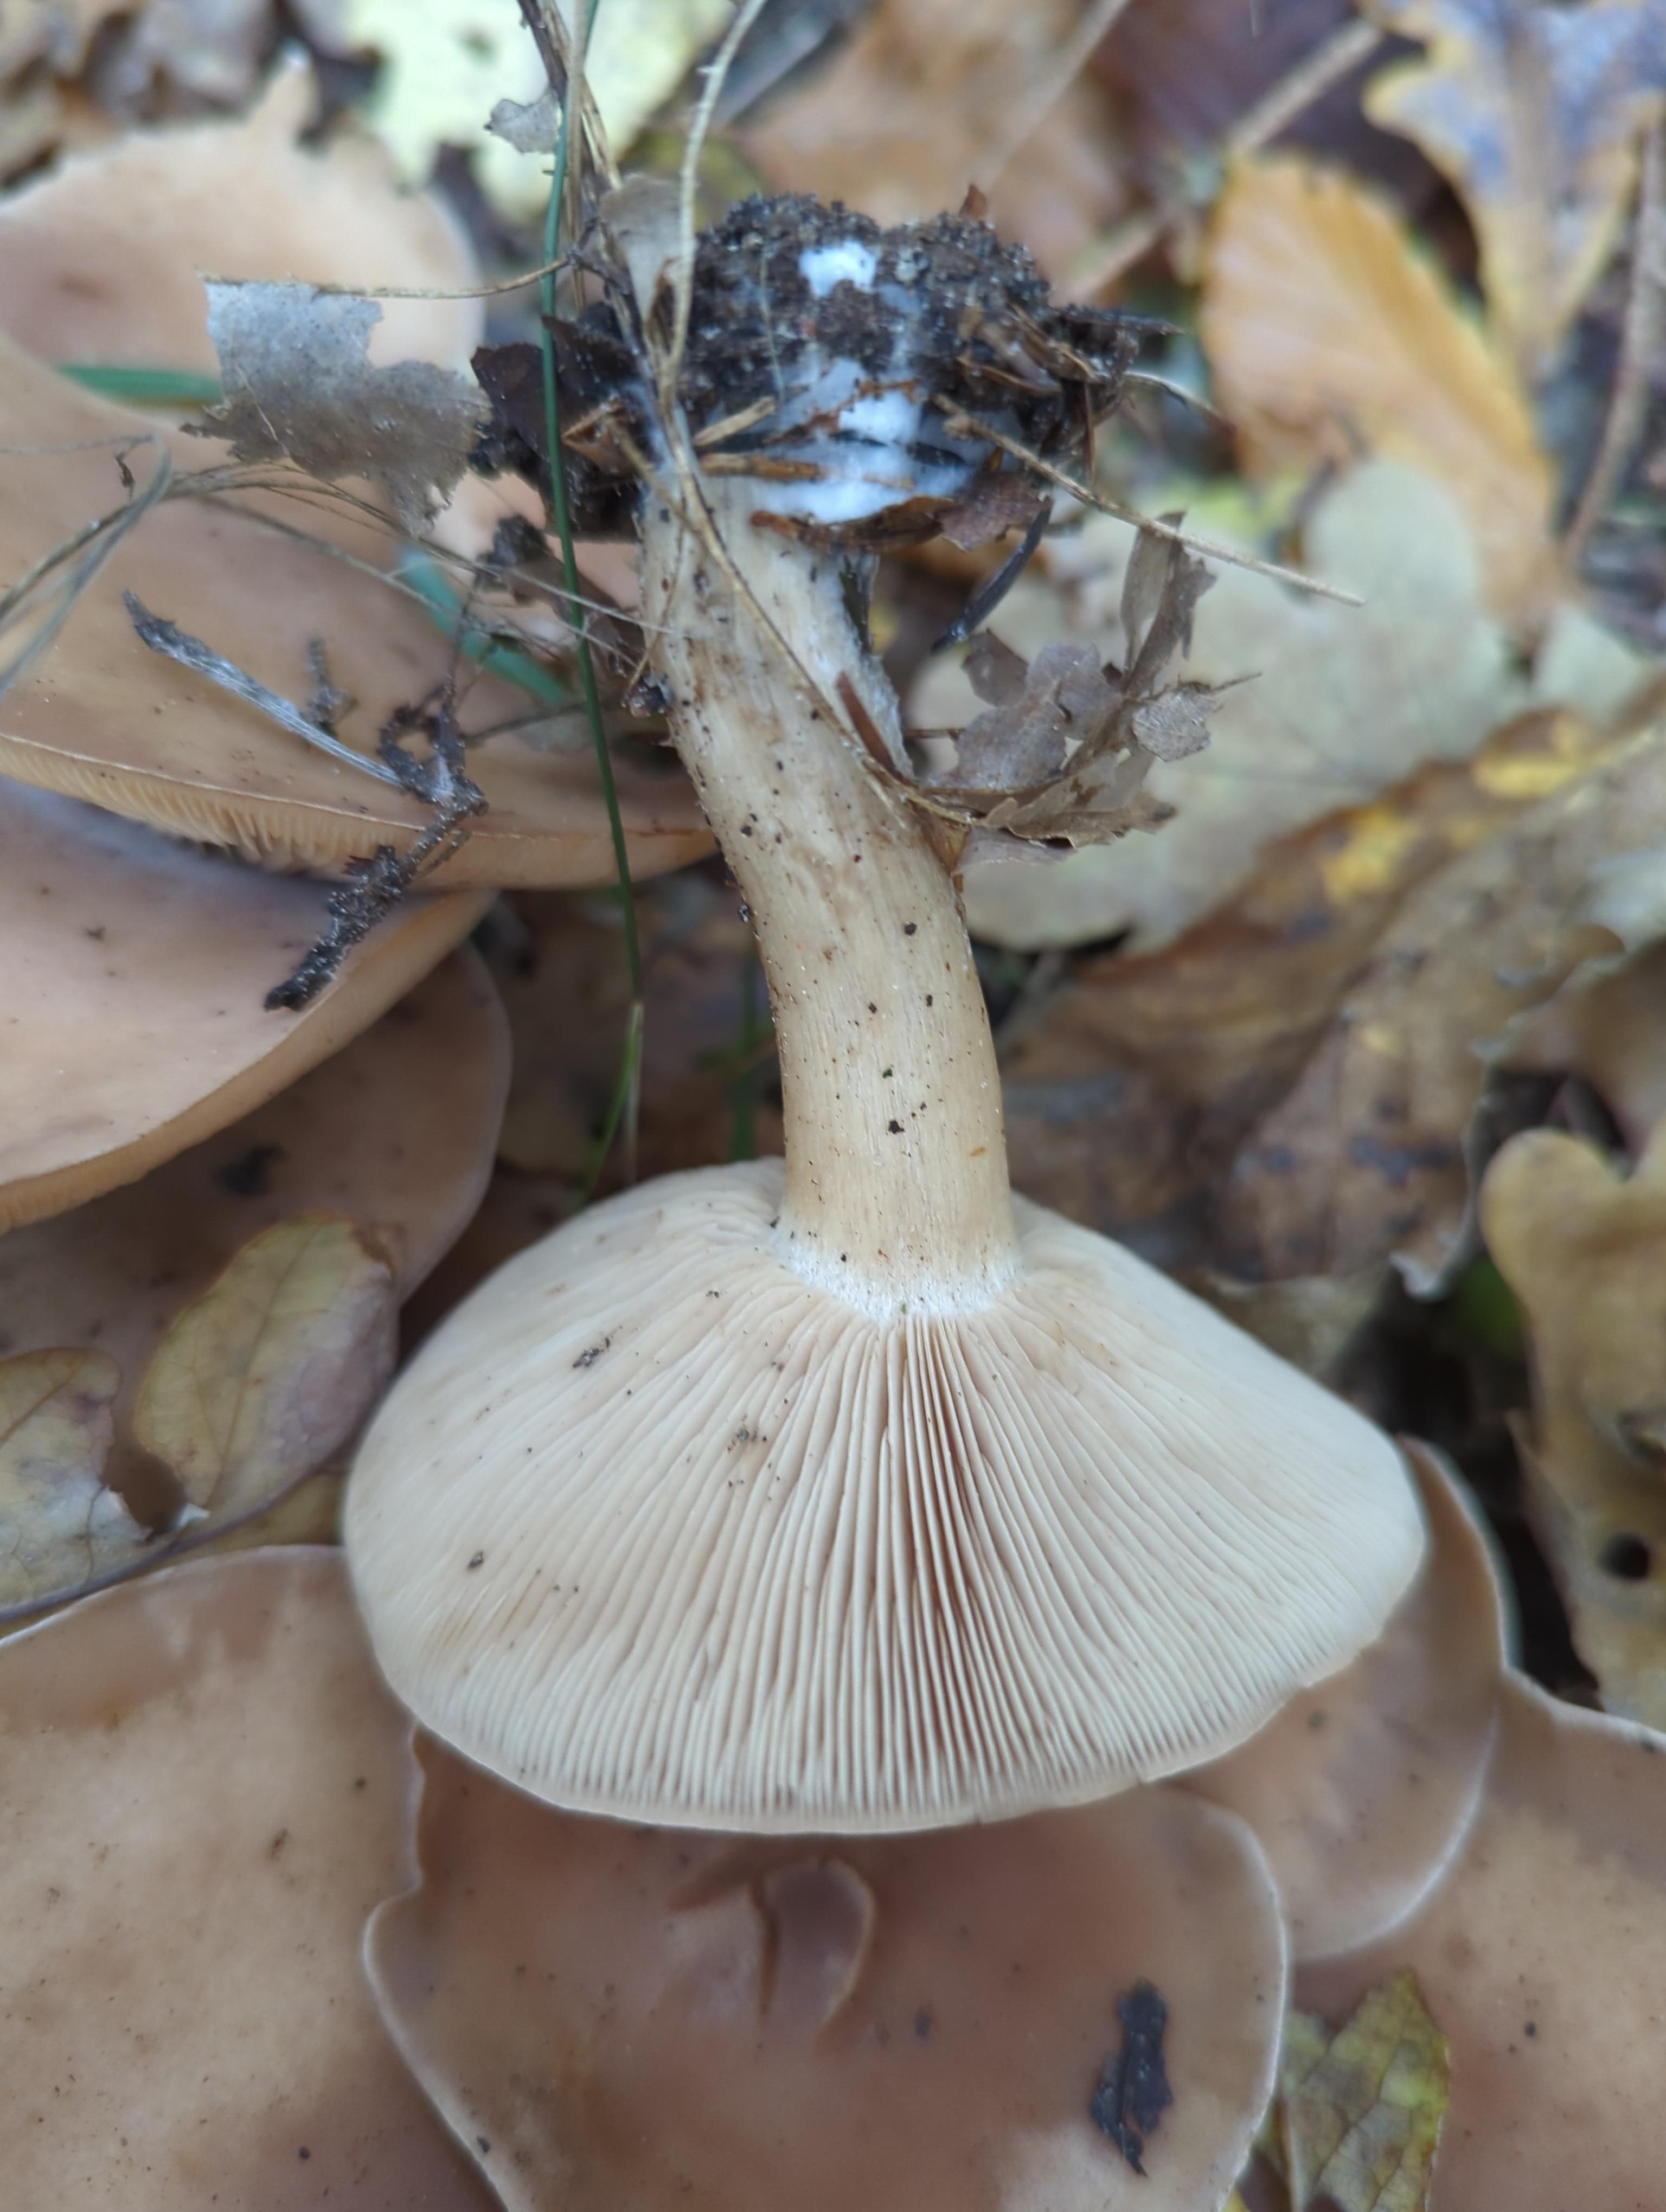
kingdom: Fungi
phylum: Basidiomycota
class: Agaricomycetes
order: Agaricales
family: Tricholomataceae
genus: Lepista
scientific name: Lepista irina
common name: violduftende hekseringshat
